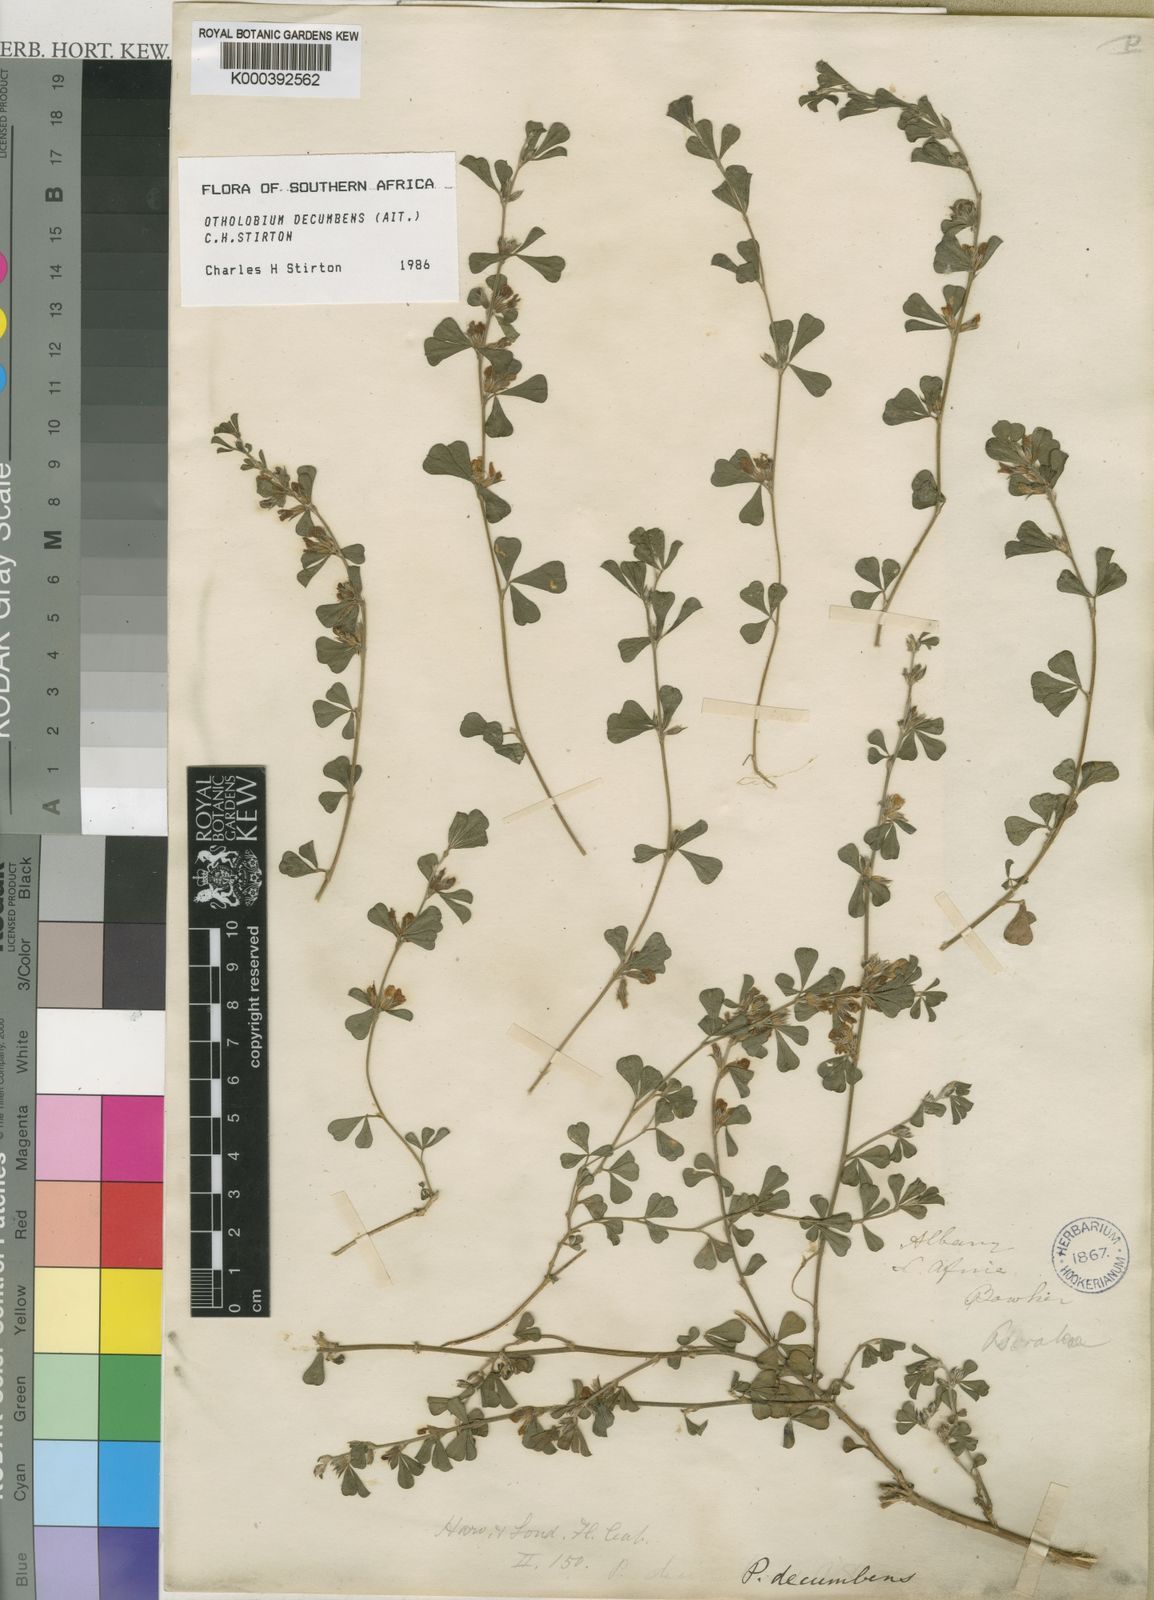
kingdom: Plantae
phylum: Tracheophyta
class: Magnoliopsida
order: Fabales
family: Fabaceae
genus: Psoralea
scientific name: Psoralea Otholobium decumbens
